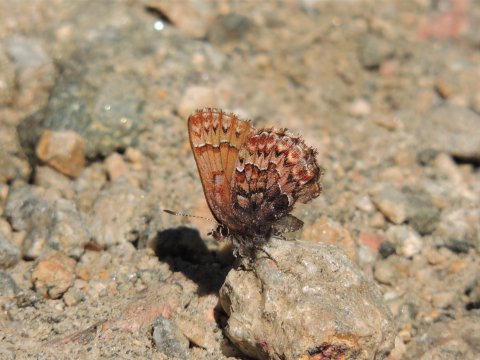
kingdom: Animalia
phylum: Arthropoda
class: Insecta
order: Lepidoptera
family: Lycaenidae
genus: Incisalia
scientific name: Incisalia eryphon
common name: Western Pine Elfin
